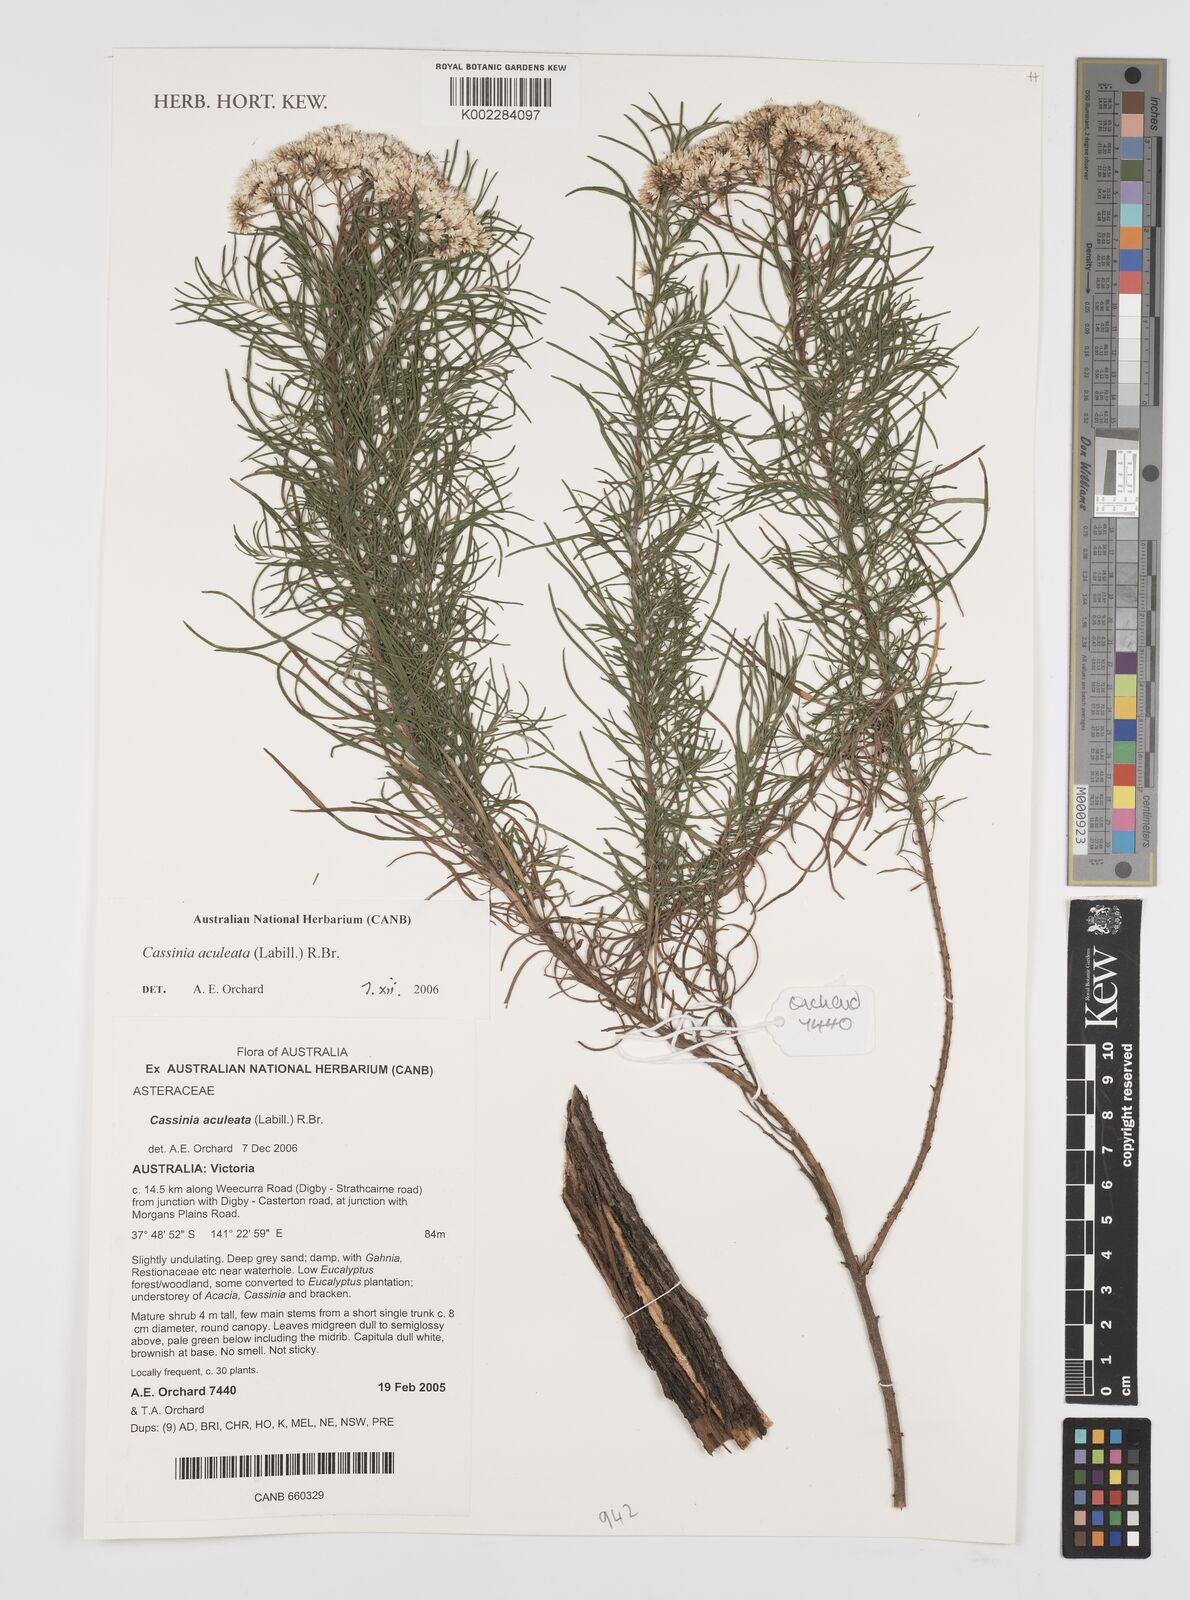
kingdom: Plantae
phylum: Tracheophyta
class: Magnoliopsida
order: Asterales
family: Asteraceae
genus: Cassinia
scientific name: Cassinia aculeata
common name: Australian tauhinu
